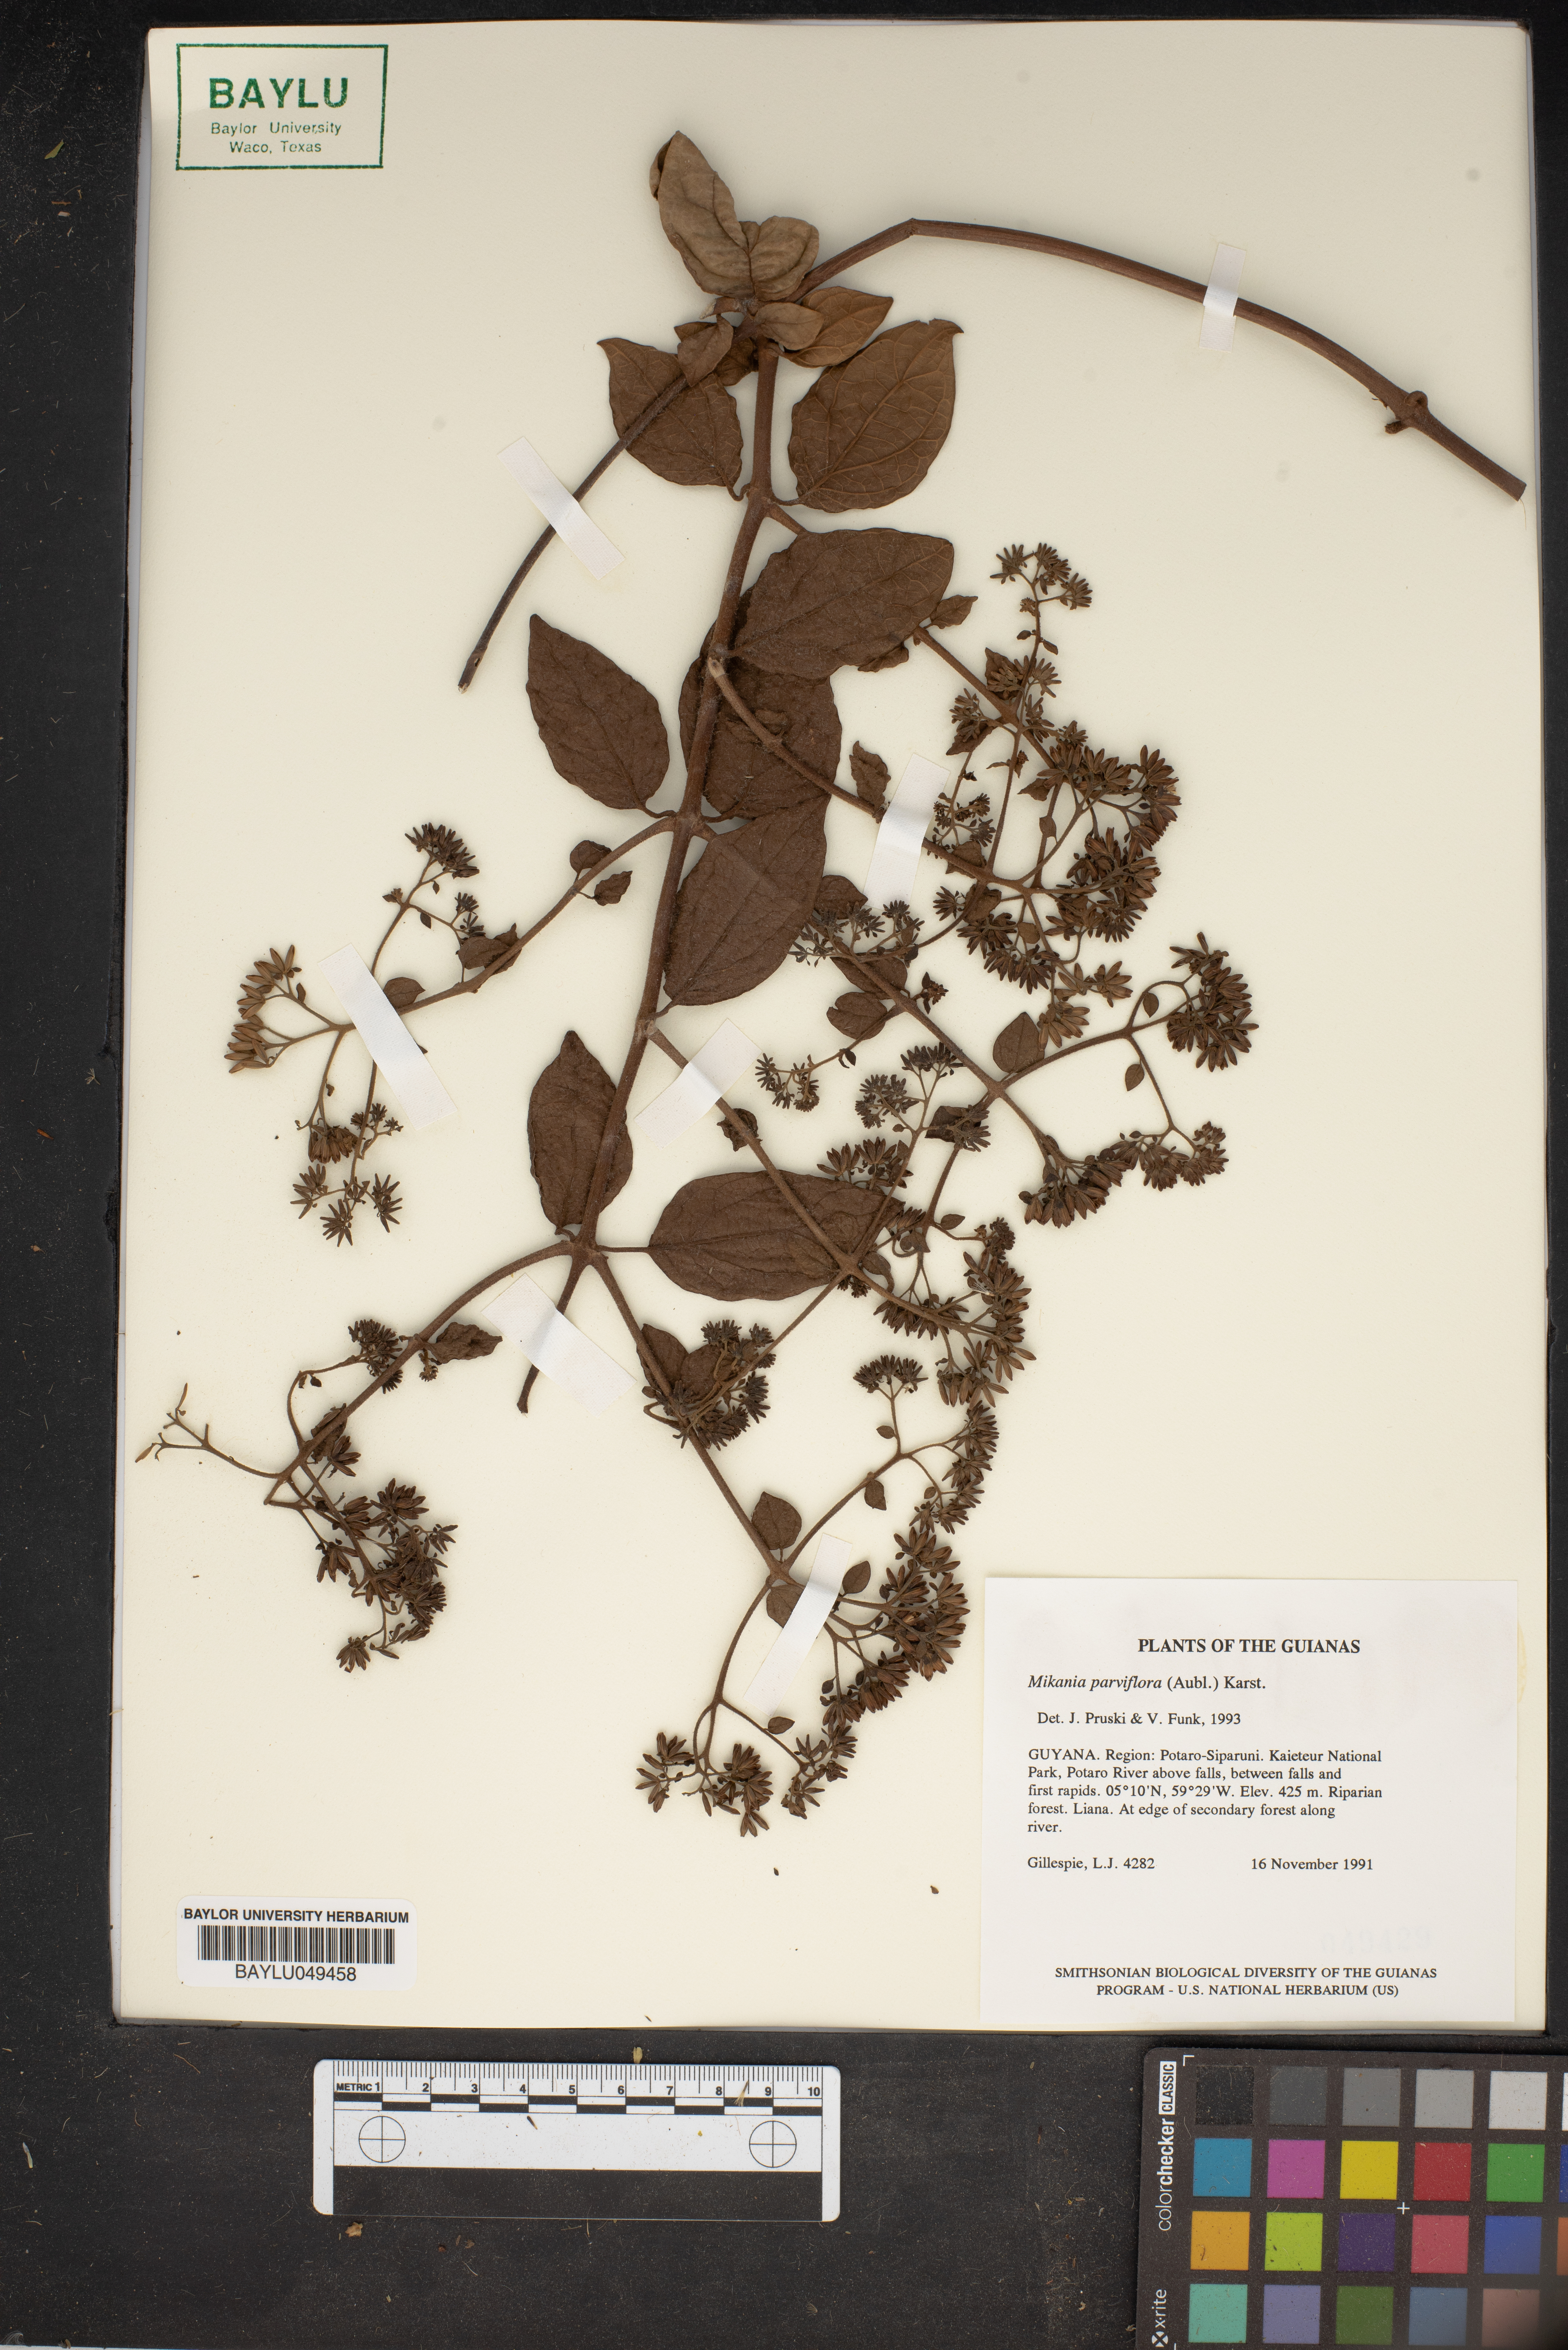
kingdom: Plantae
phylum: Tracheophyta
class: Magnoliopsida
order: Asterales
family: Asteraceae
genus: Mikania
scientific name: Mikania parviflora
